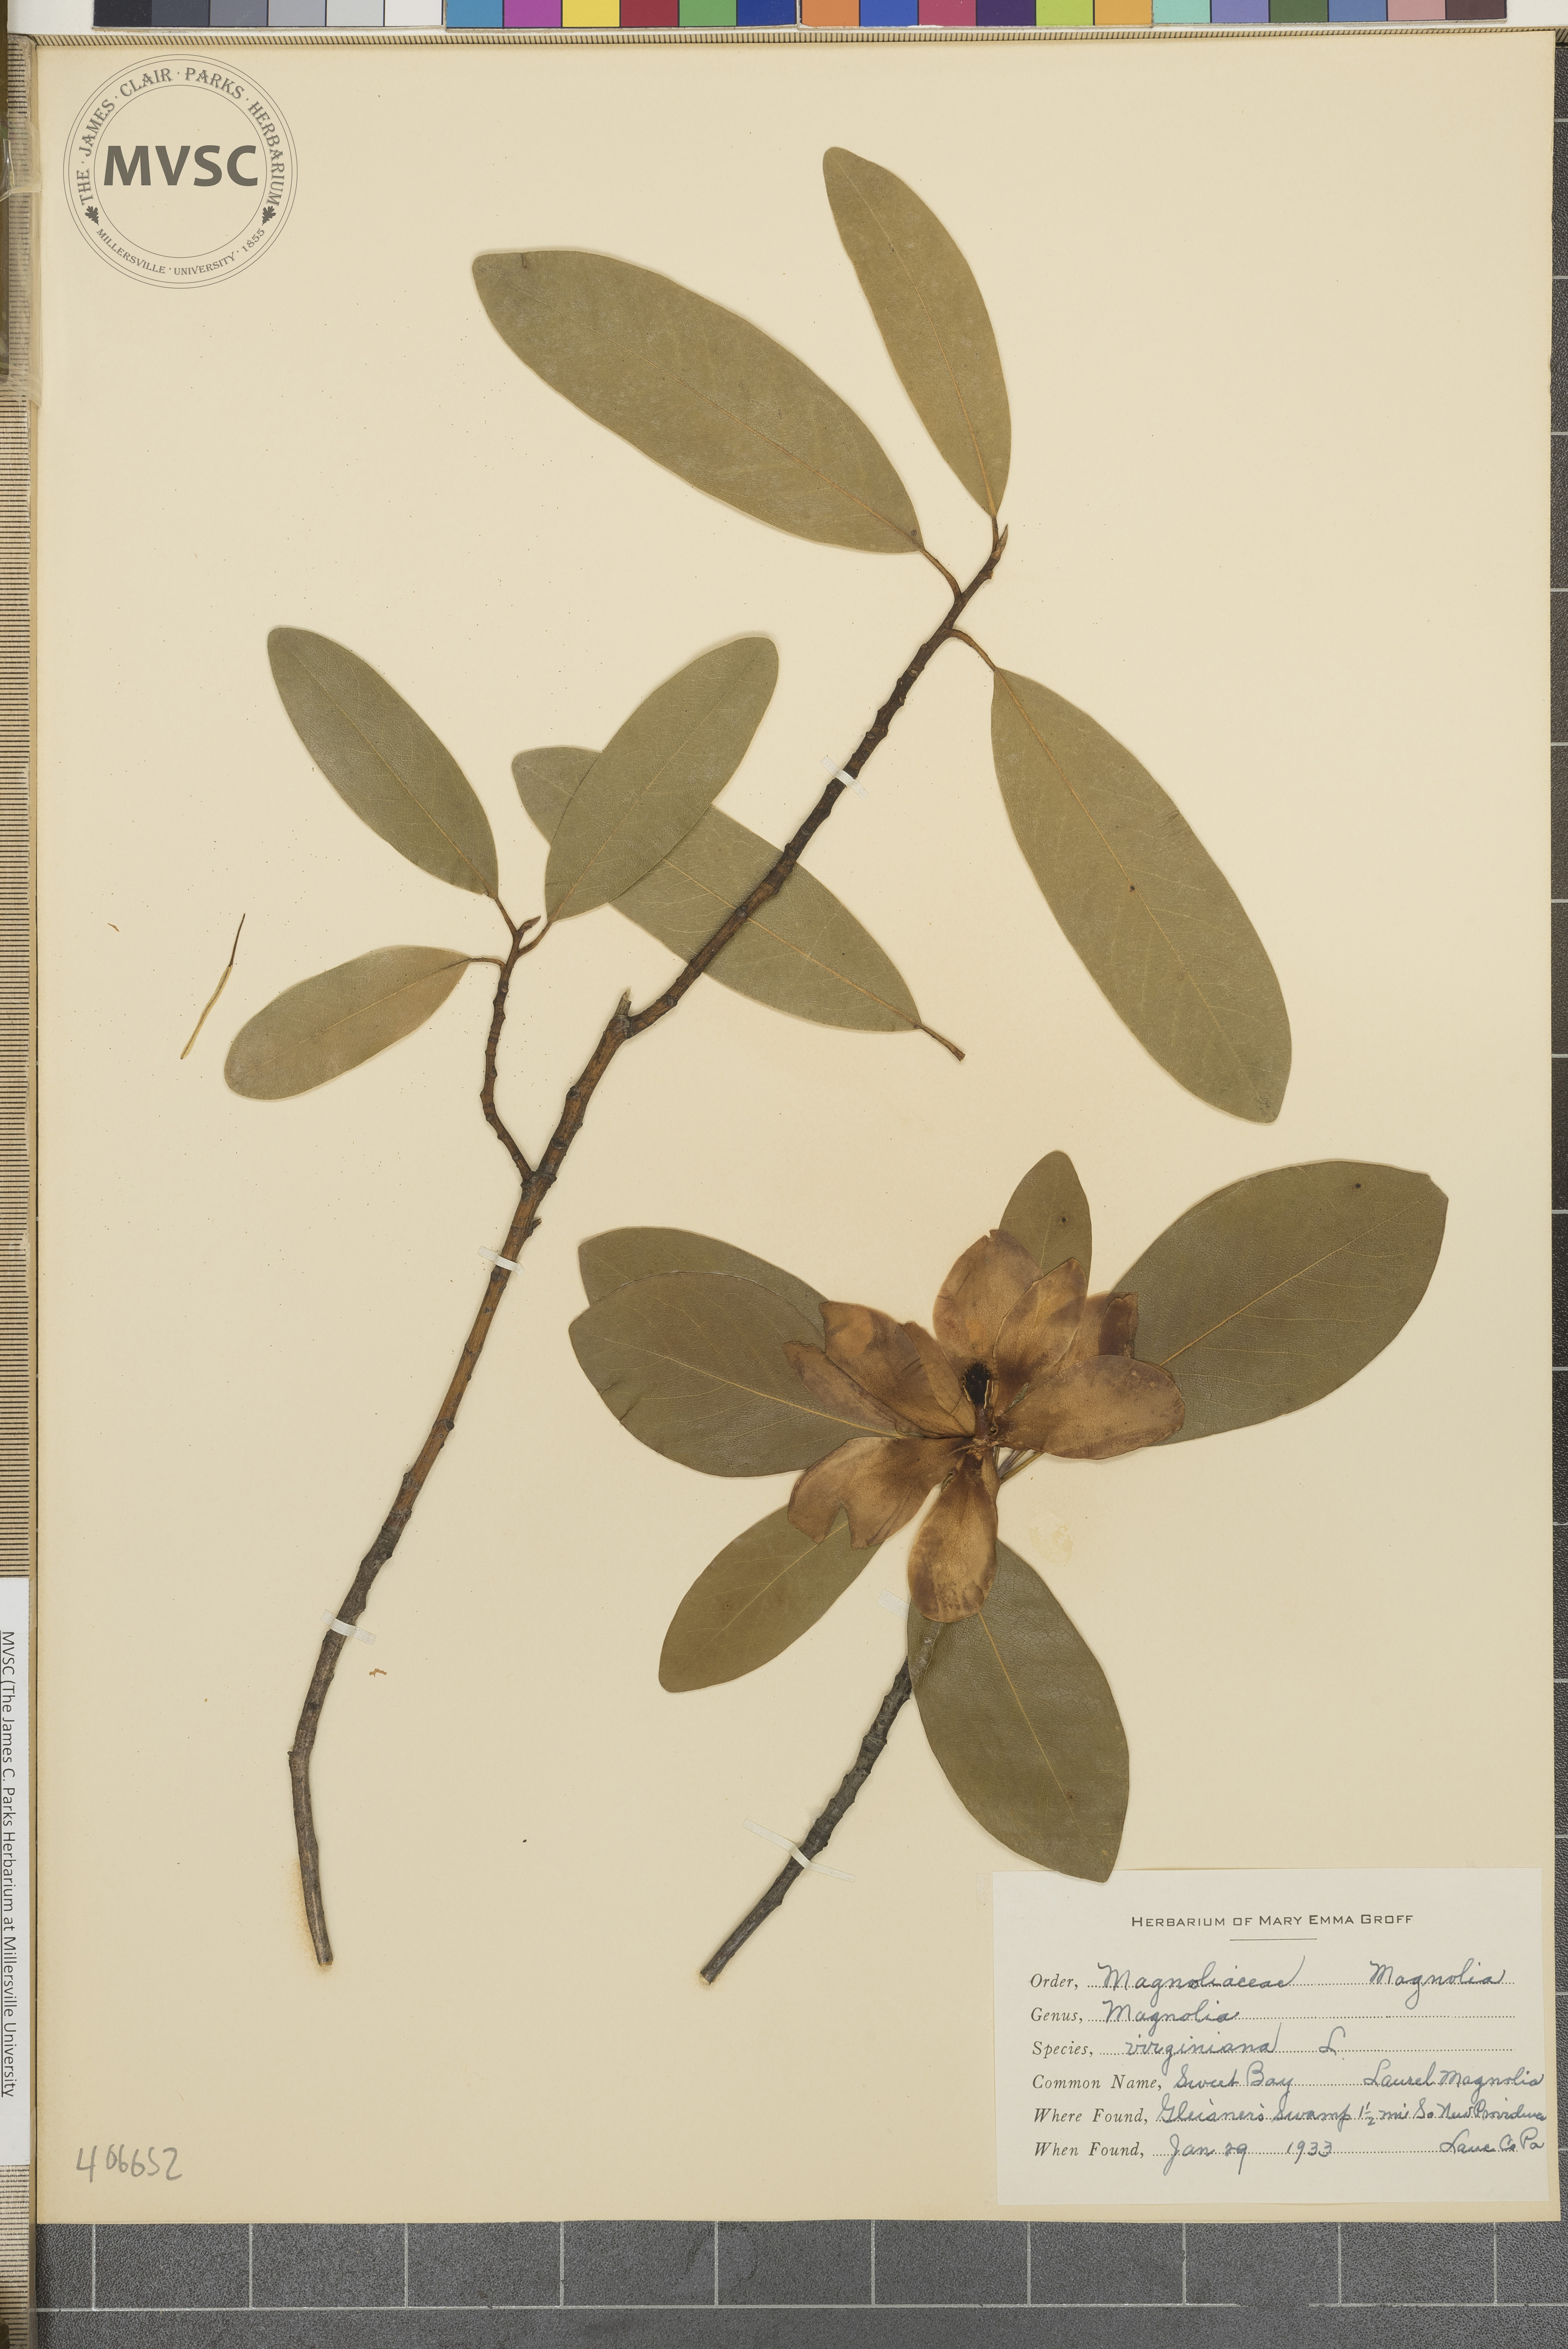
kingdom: Plantae
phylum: Tracheophyta
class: Magnoliopsida
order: Magnoliales
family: Magnoliaceae
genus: Magnolia
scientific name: Magnolia virginiana
